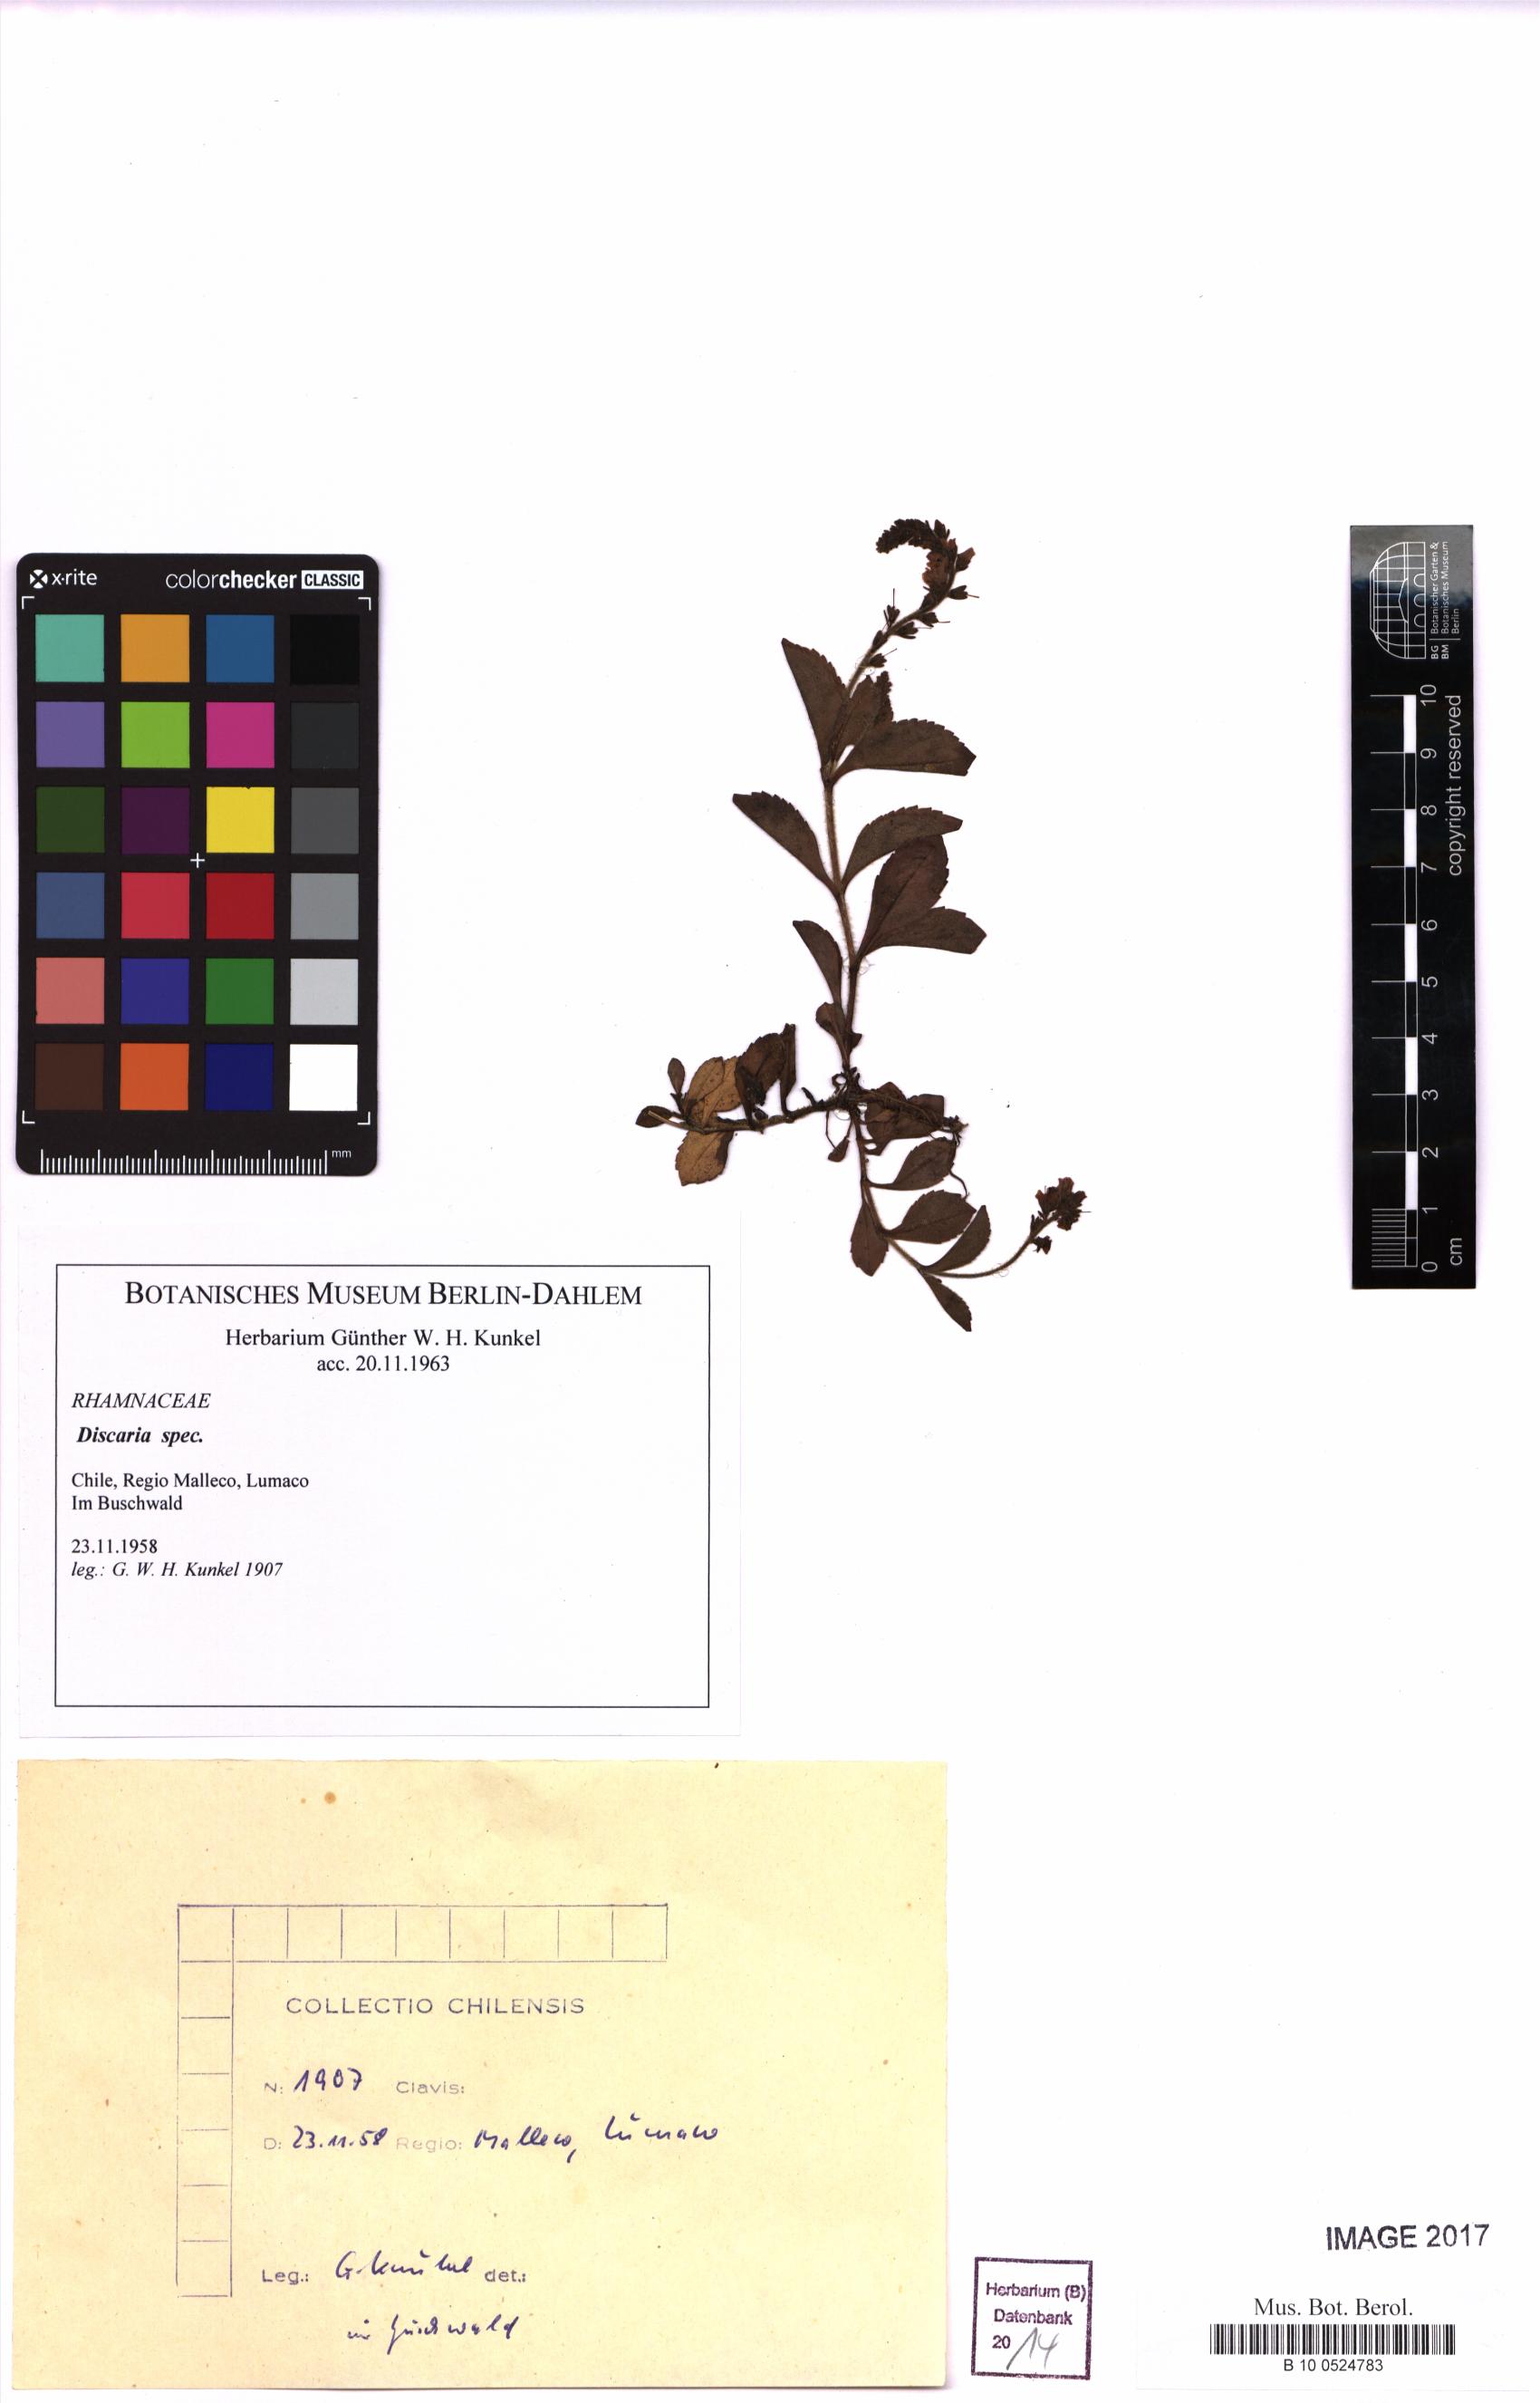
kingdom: Plantae
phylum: Tracheophyta
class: Magnoliopsida
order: Rosales
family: Rhamnaceae
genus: Discaria
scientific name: Discaria
